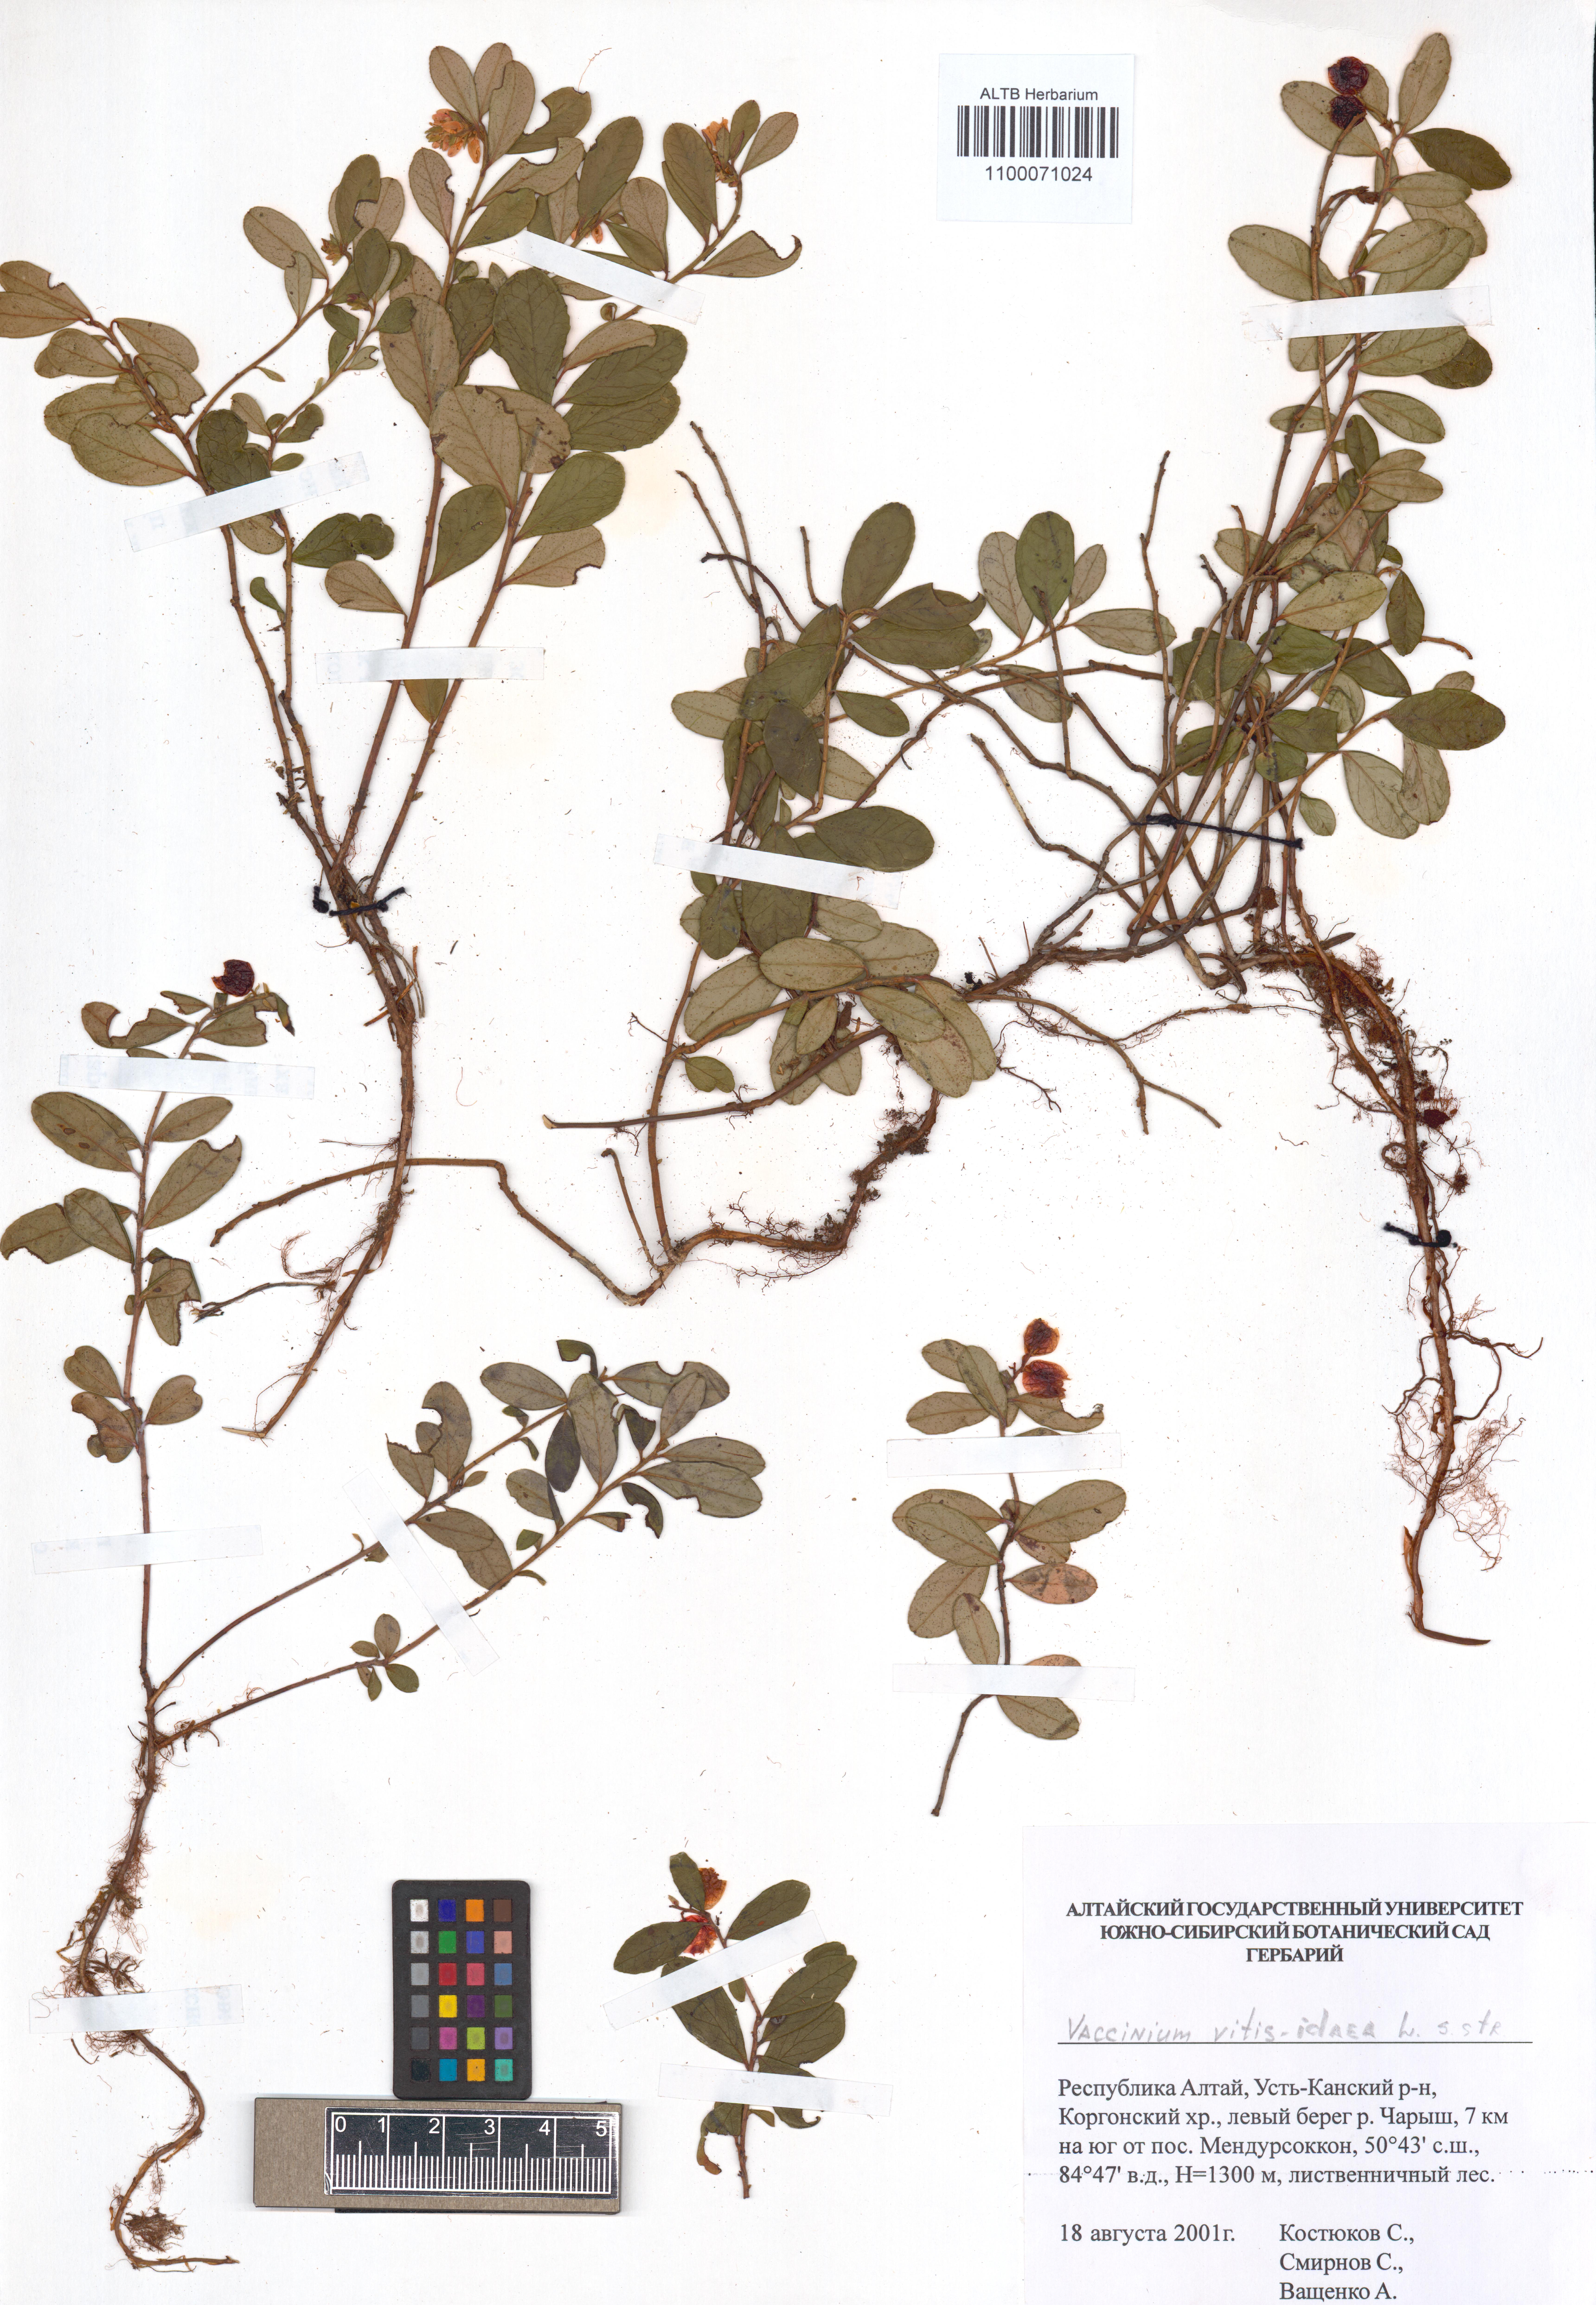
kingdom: Plantae
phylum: Tracheophyta
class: Magnoliopsida
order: Ericales
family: Ericaceae
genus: Vaccinium
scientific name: Vaccinium vitis-idaea
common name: Cowberry
